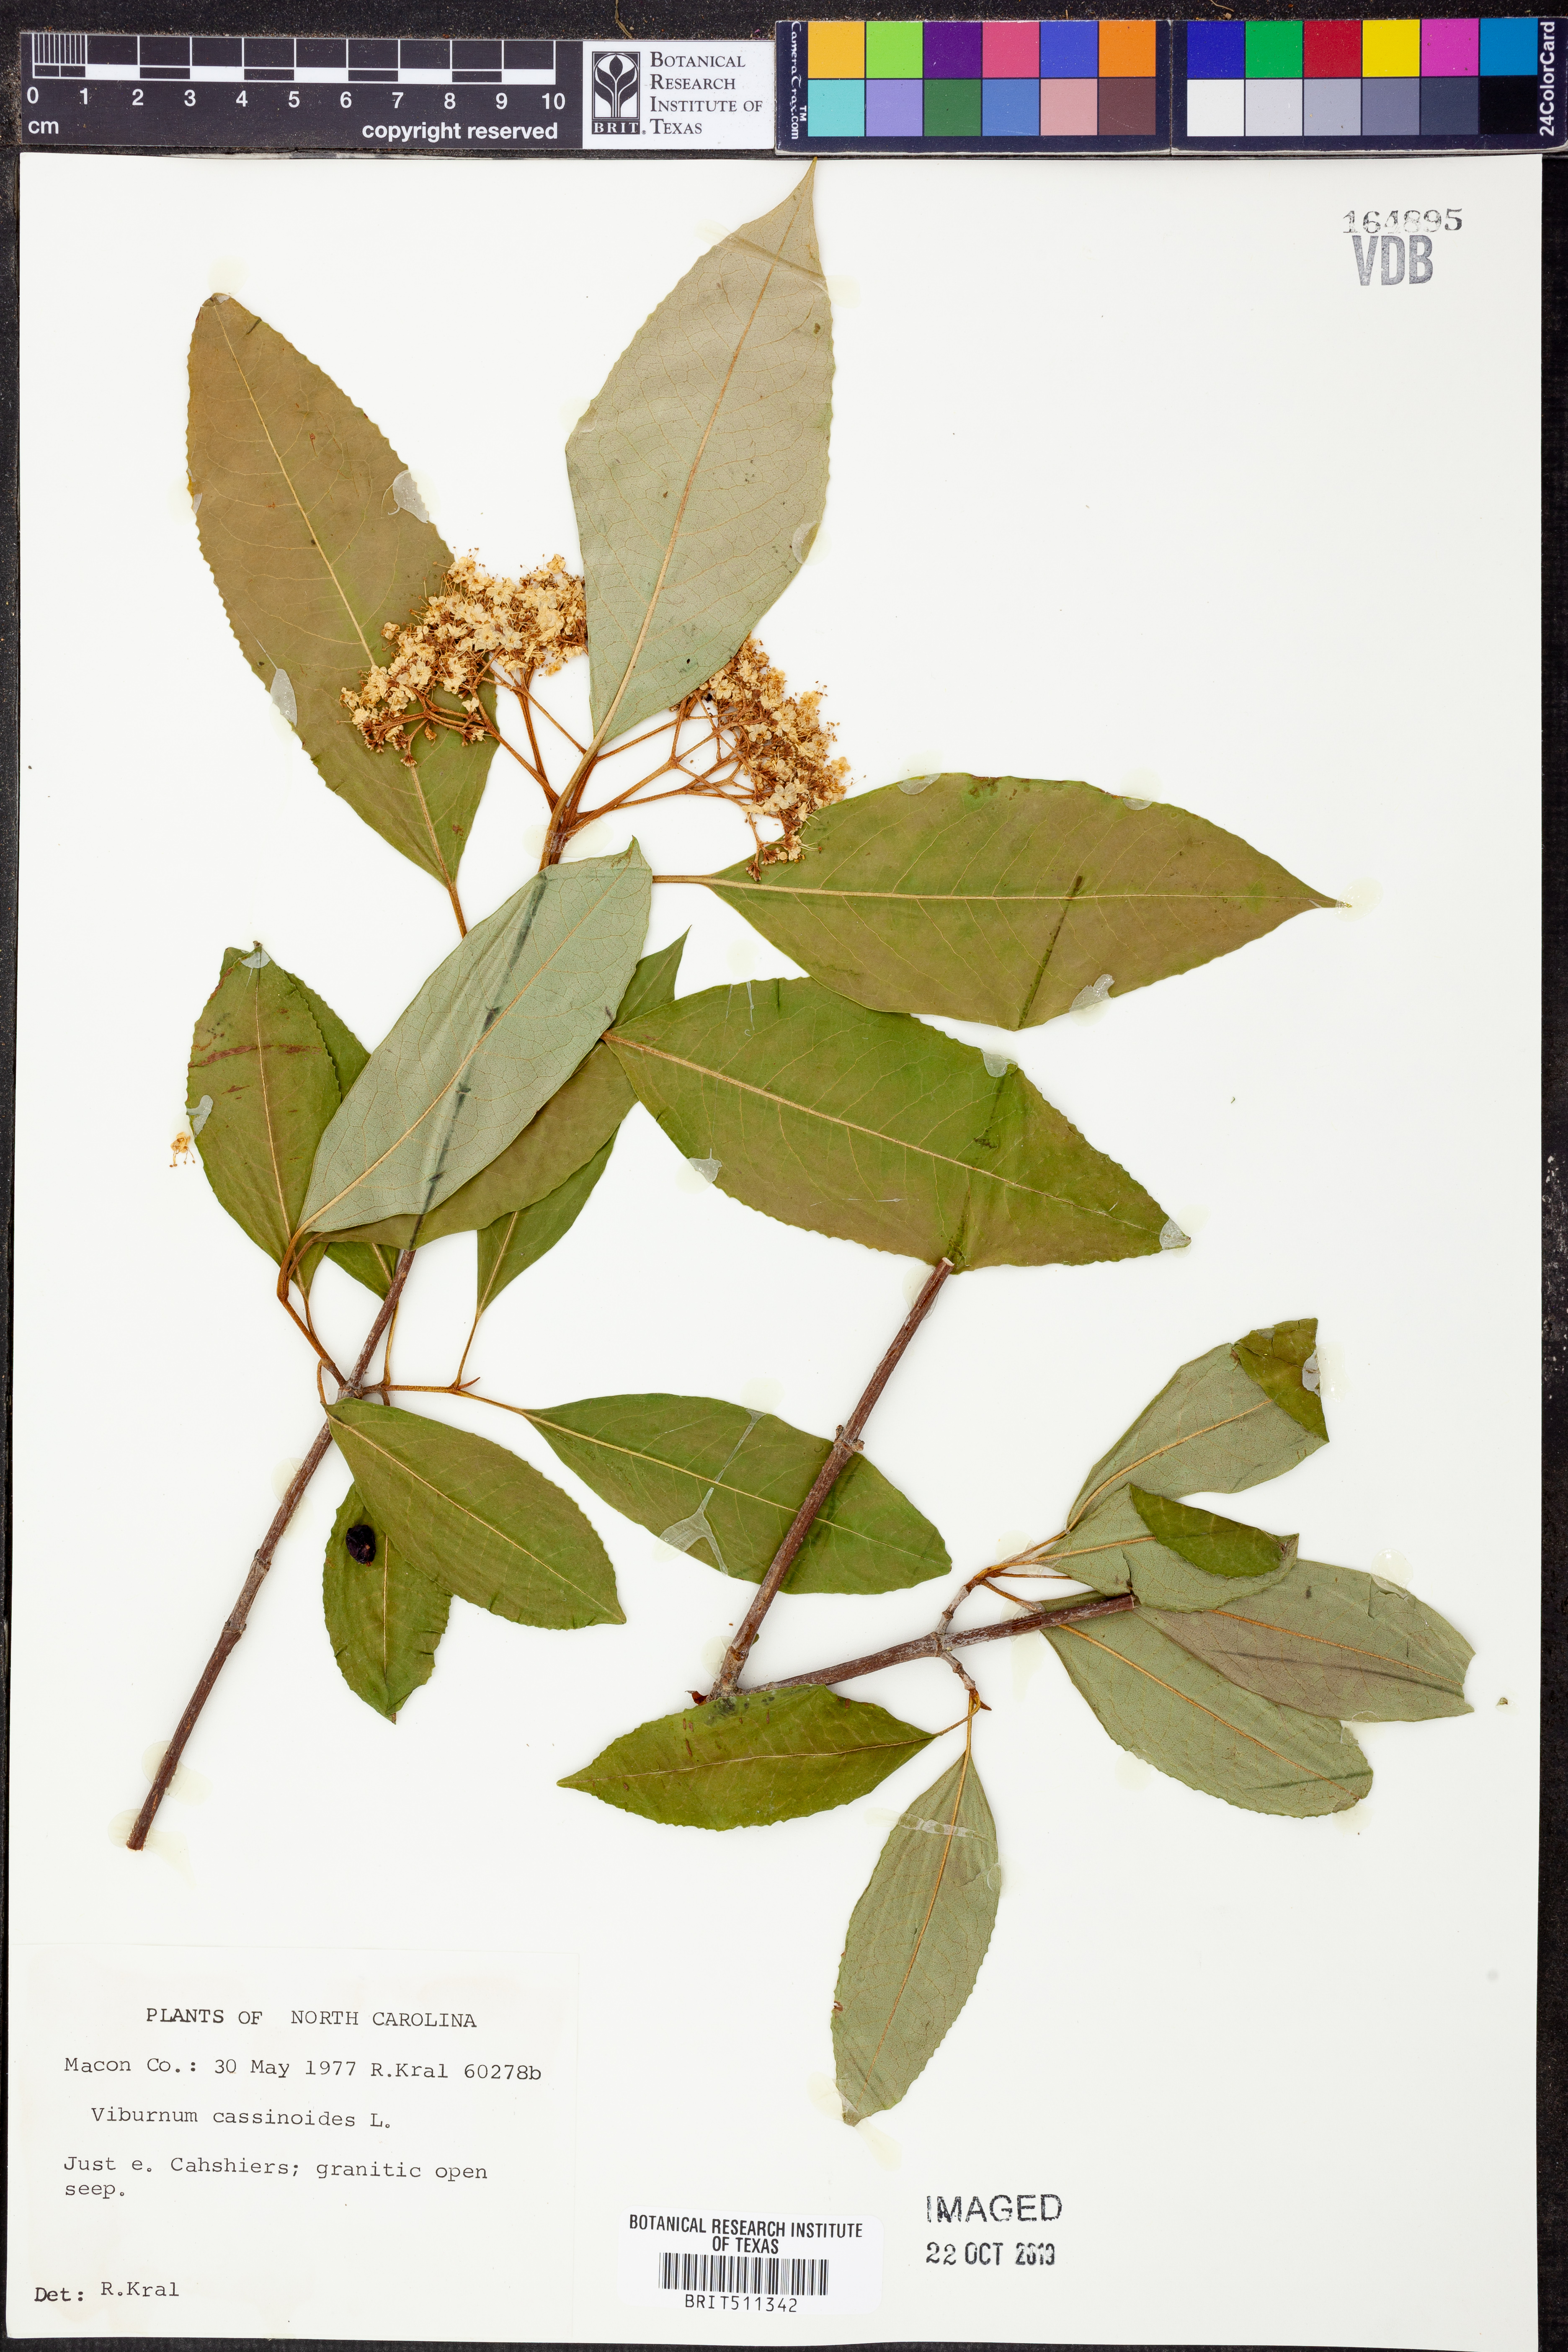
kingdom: Plantae
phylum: Tracheophyta
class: Magnoliopsida
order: Dipsacales
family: Viburnaceae
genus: Viburnum
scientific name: Viburnum cassinoides
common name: Swamp haw
